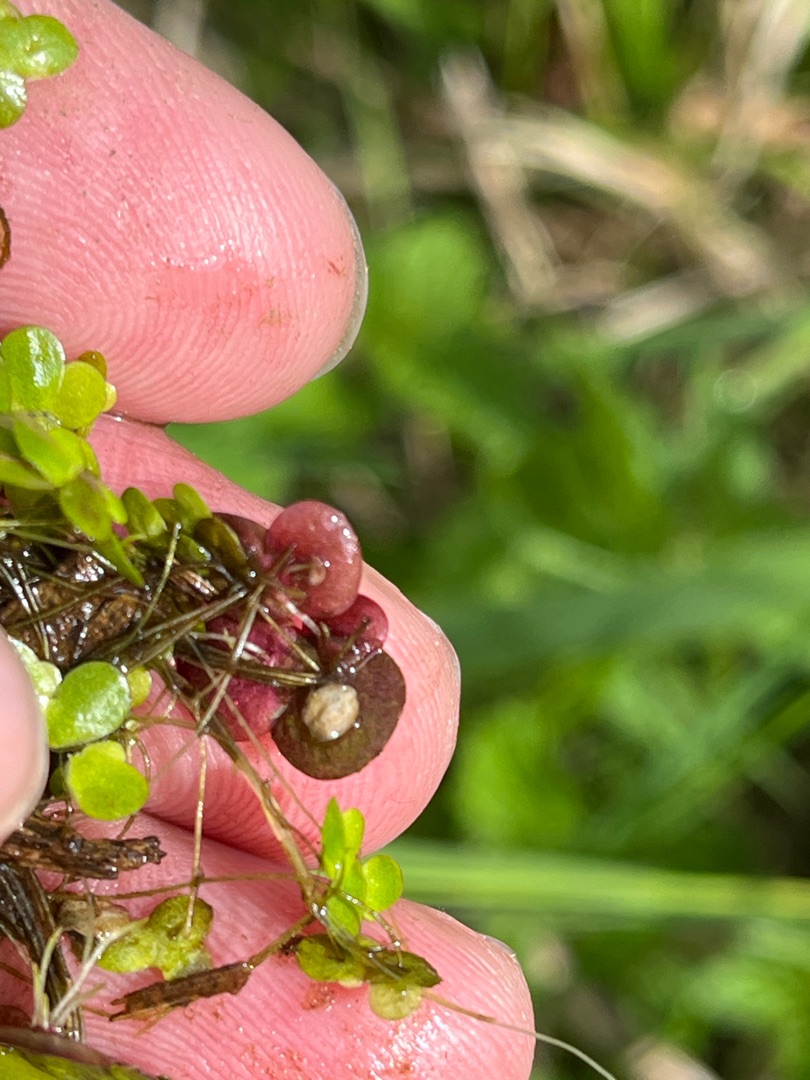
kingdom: Plantae
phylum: Tracheophyta
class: Liliopsida
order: Alismatales
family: Araceae
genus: Spirodela
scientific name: Spirodela polyrhiza
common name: Stor andemad
